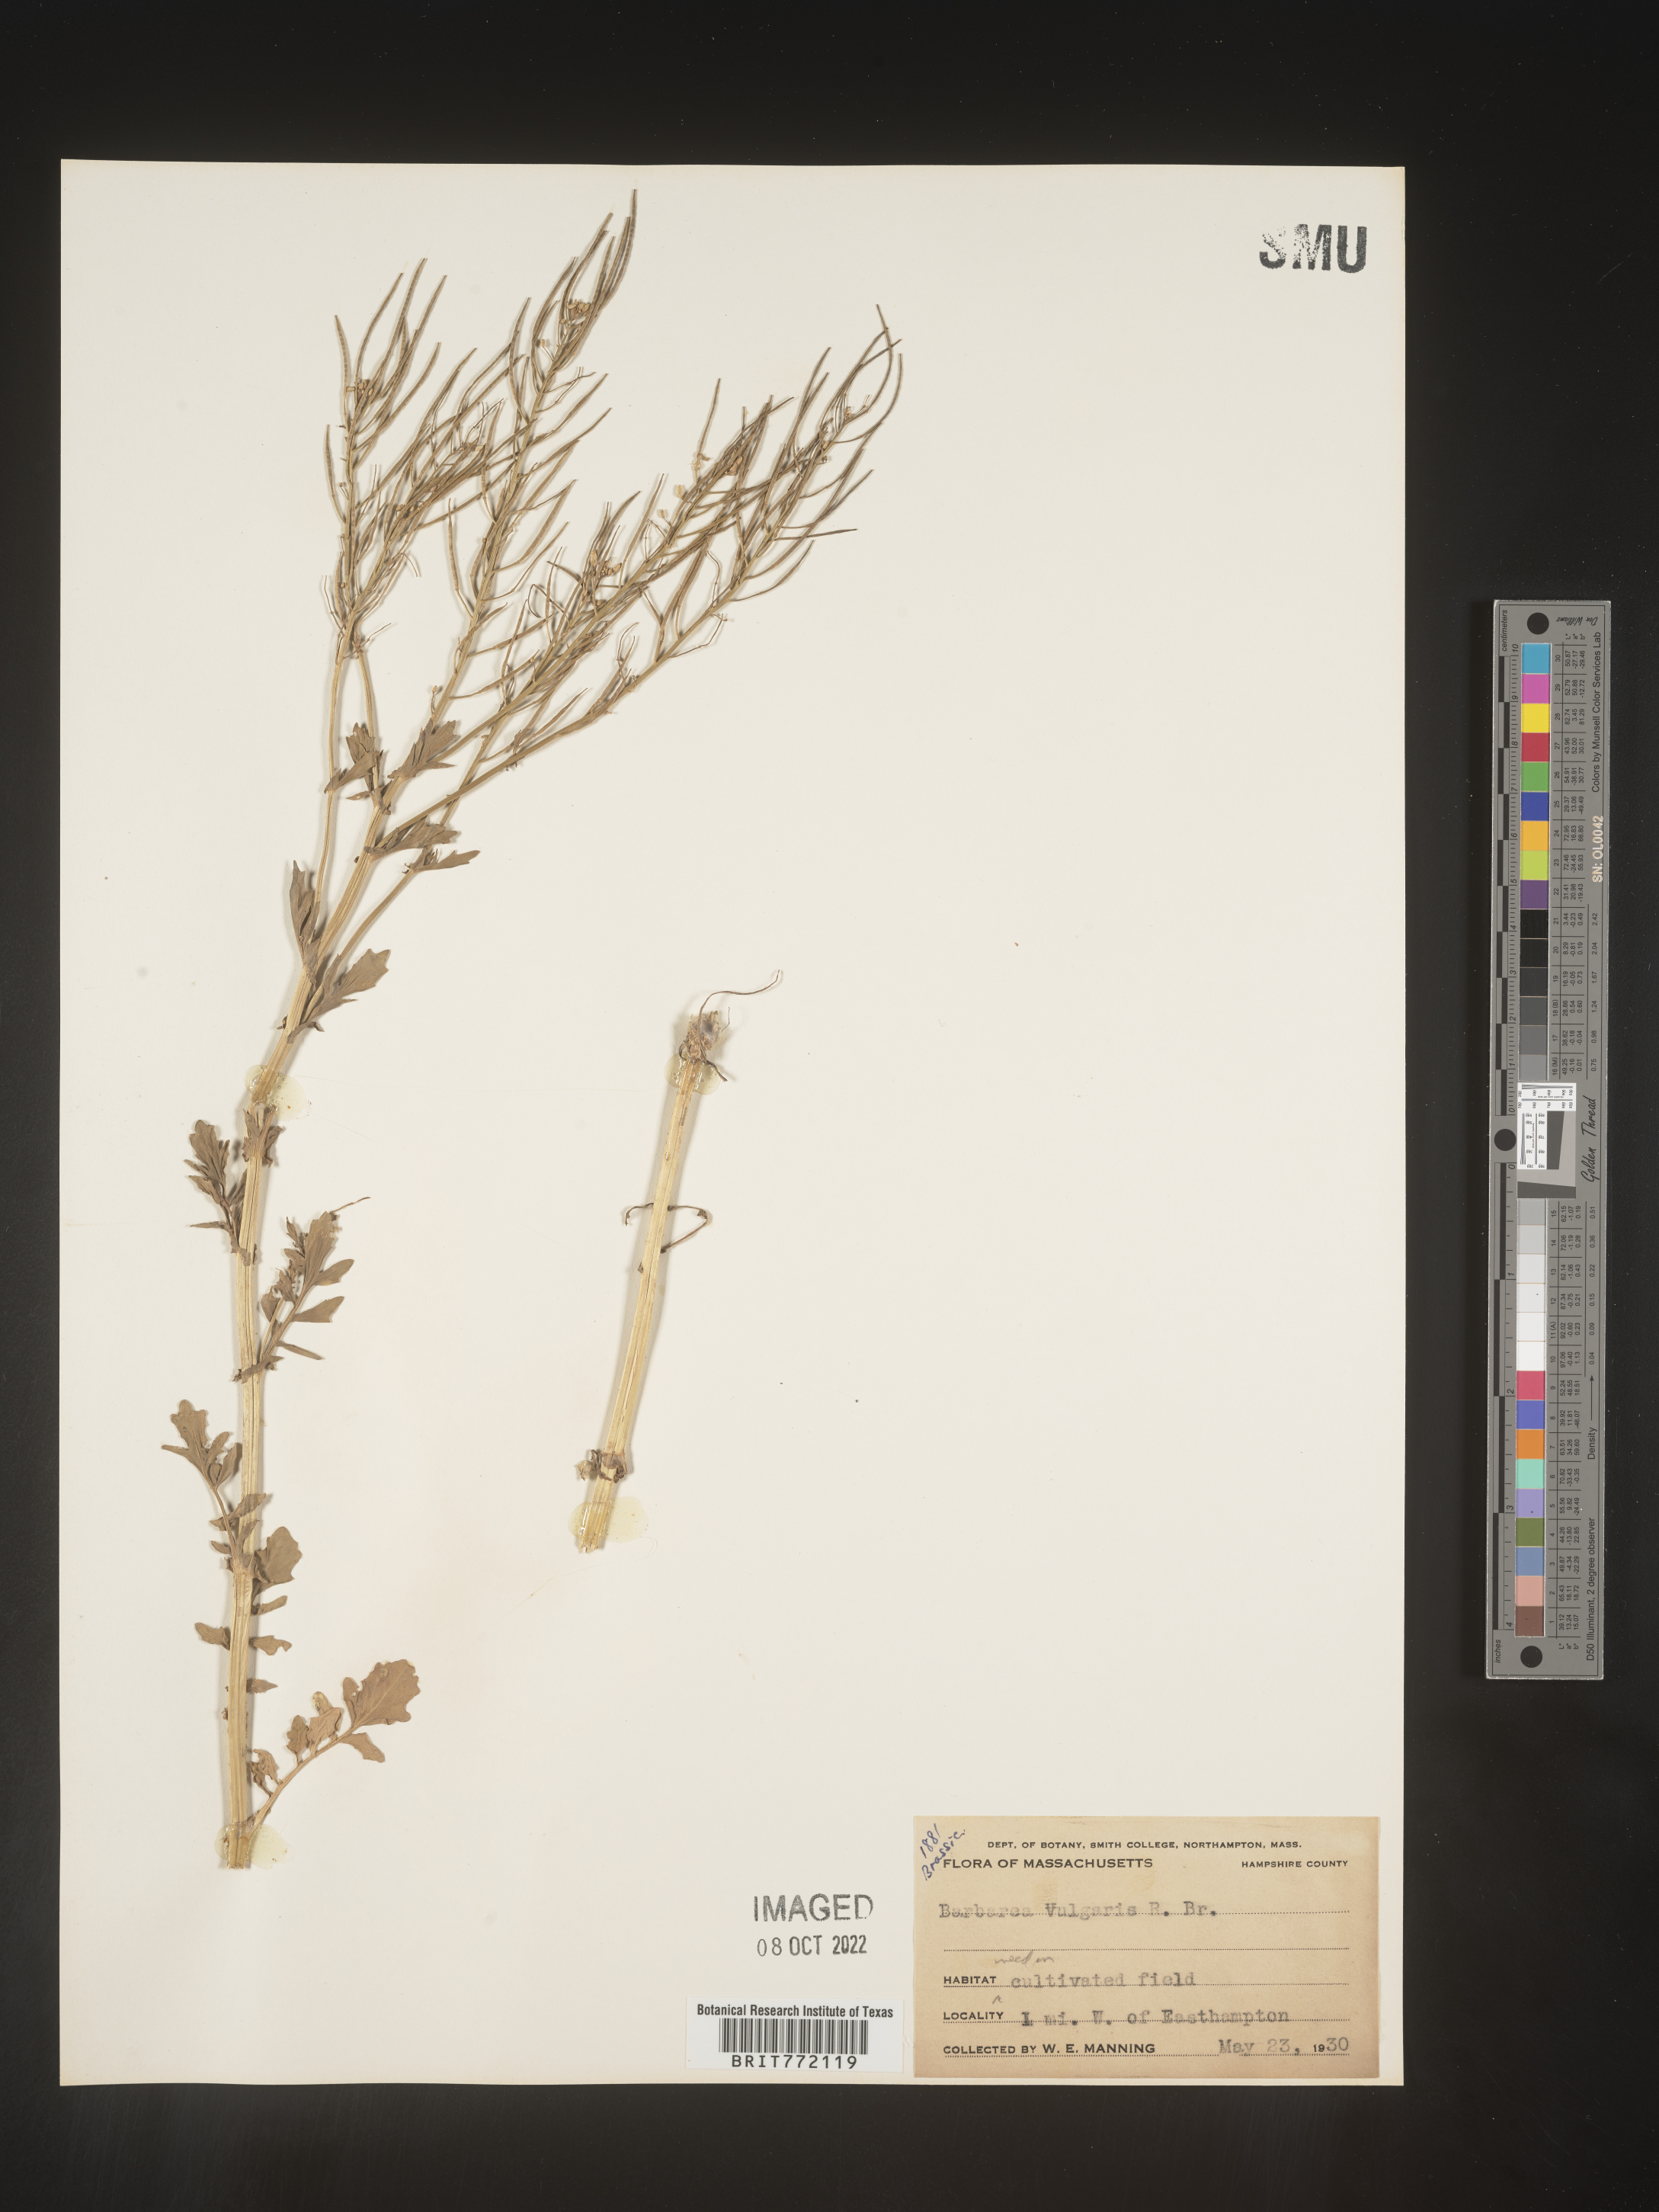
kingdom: Plantae
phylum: Tracheophyta
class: Magnoliopsida
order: Brassicales
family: Brassicaceae
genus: Barbarea
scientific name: Barbarea vulgaris
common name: Cressy-greens
